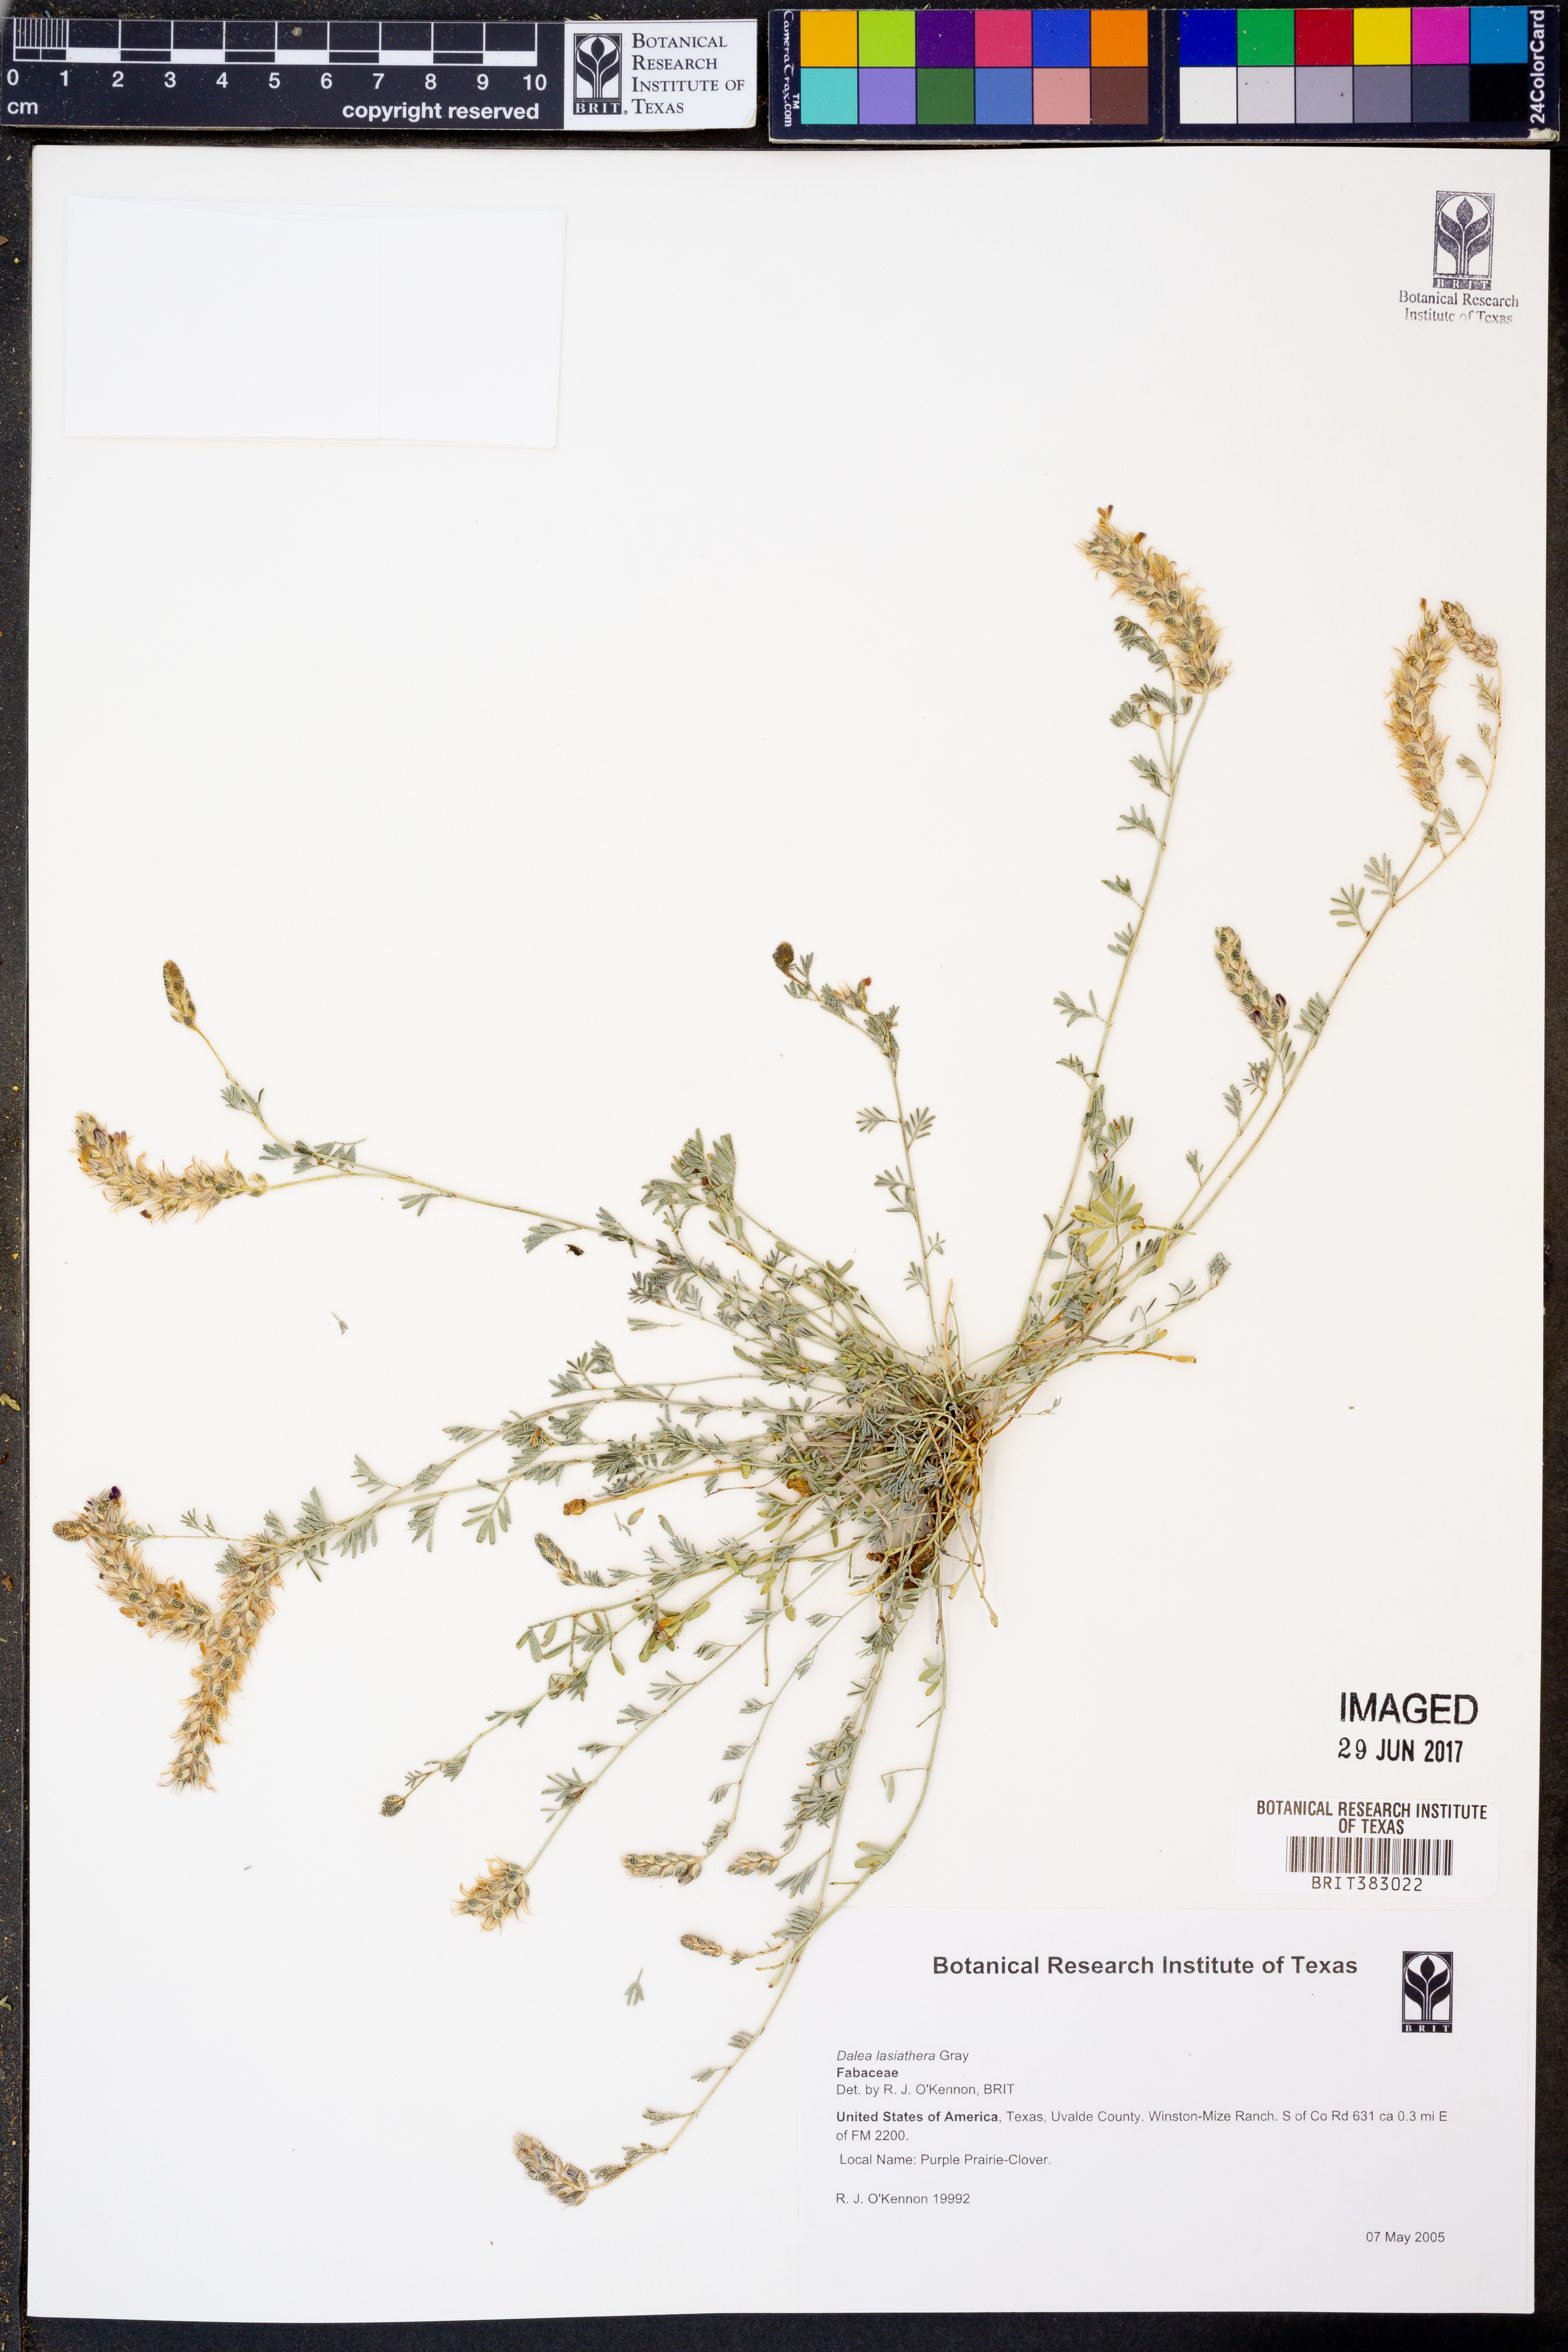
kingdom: Plantae
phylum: Tracheophyta
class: Magnoliopsida
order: Fabales
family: Fabaceae
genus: Dalea
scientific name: Dalea lasiathera
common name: Purple prairie-clover
